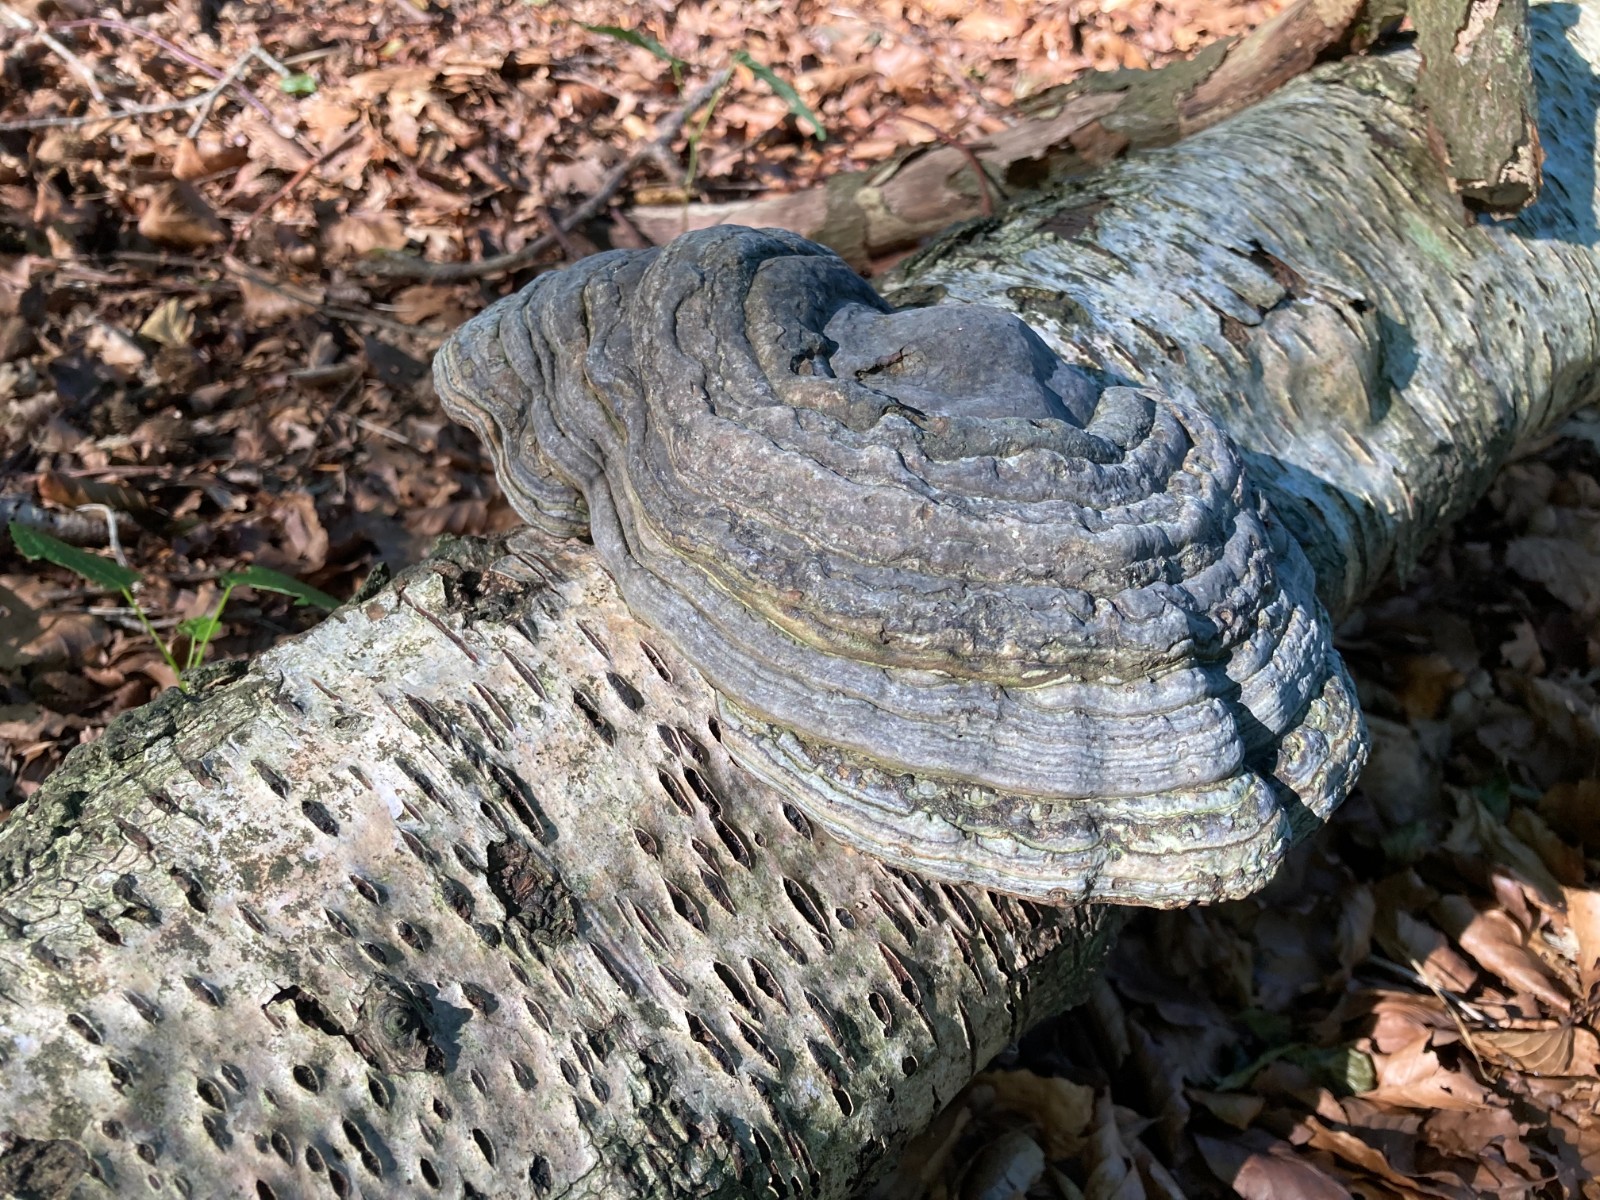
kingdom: Fungi
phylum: Basidiomycota
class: Agaricomycetes
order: Polyporales
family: Polyporaceae
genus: Fomes
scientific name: Fomes fomentarius
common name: tøndersvamp
